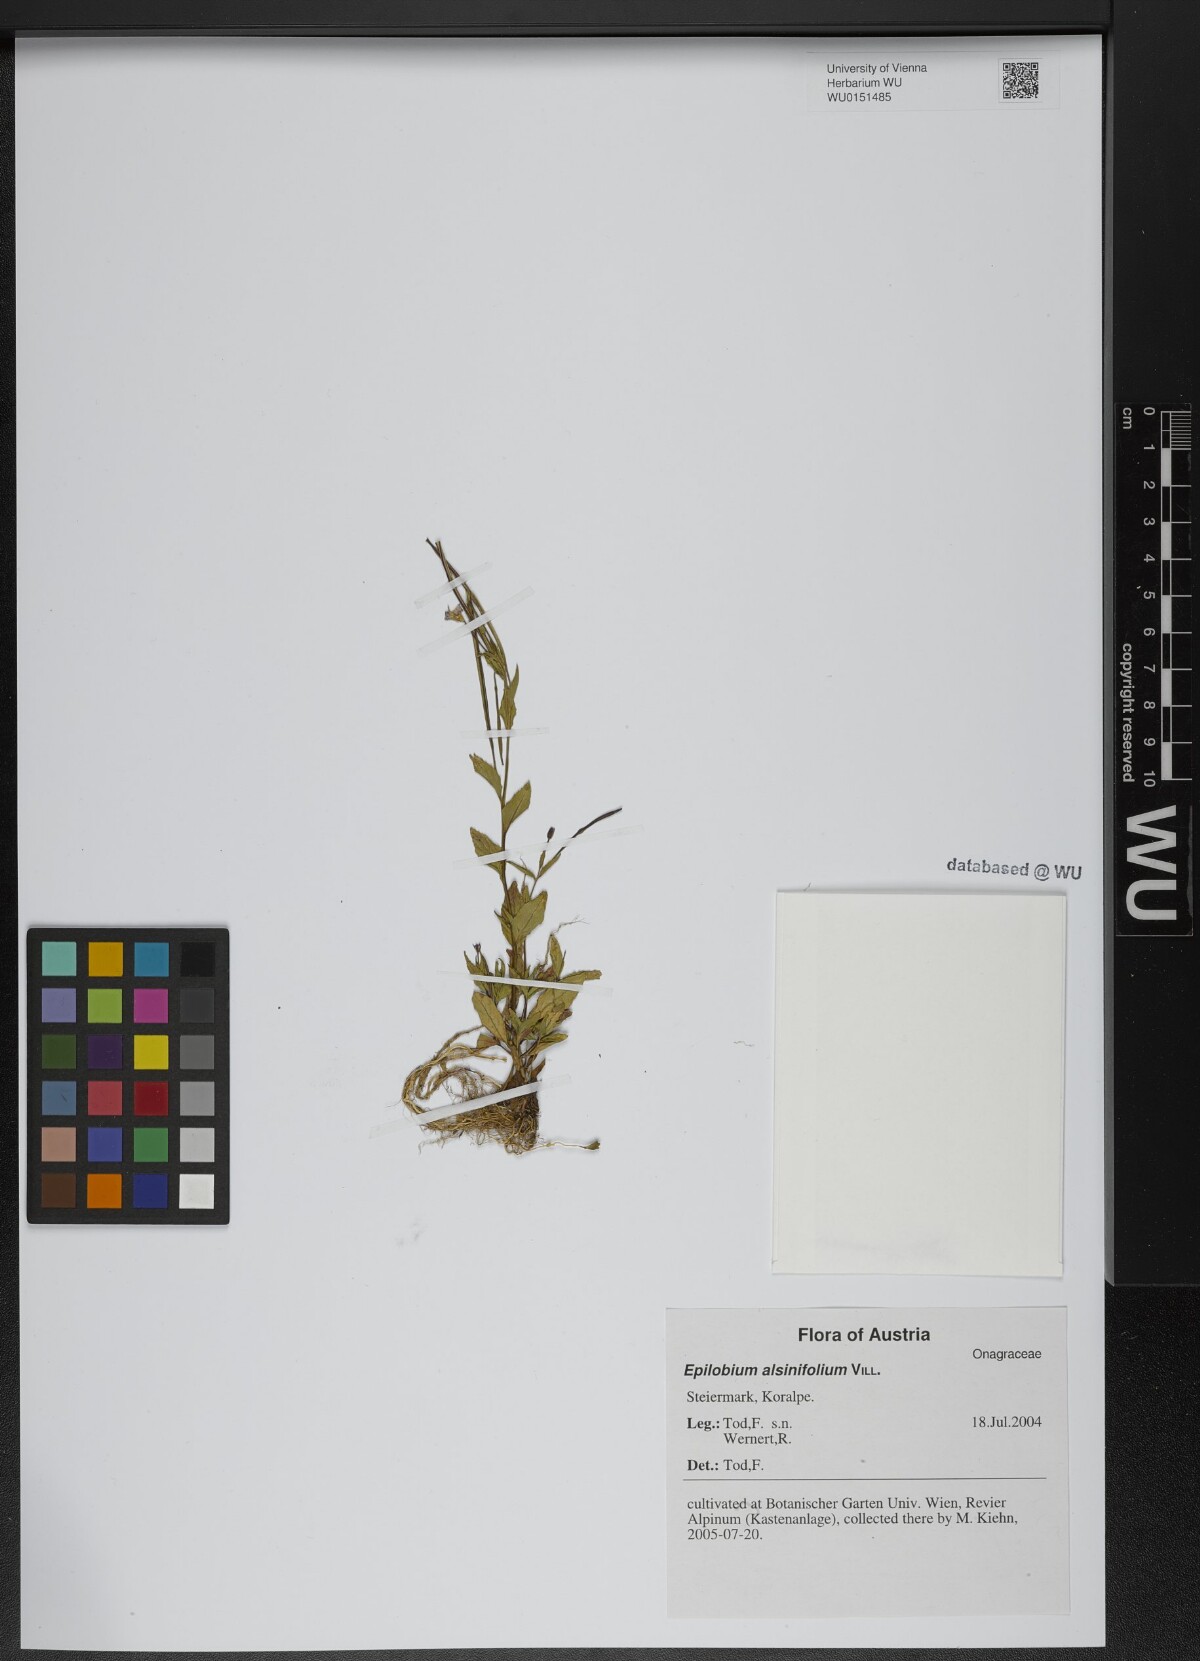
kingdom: Plantae
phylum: Tracheophyta
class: Magnoliopsida
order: Myrtales
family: Onagraceae
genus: Epilobium
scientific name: Epilobium alsinifolium
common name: Chickweed willowherb
